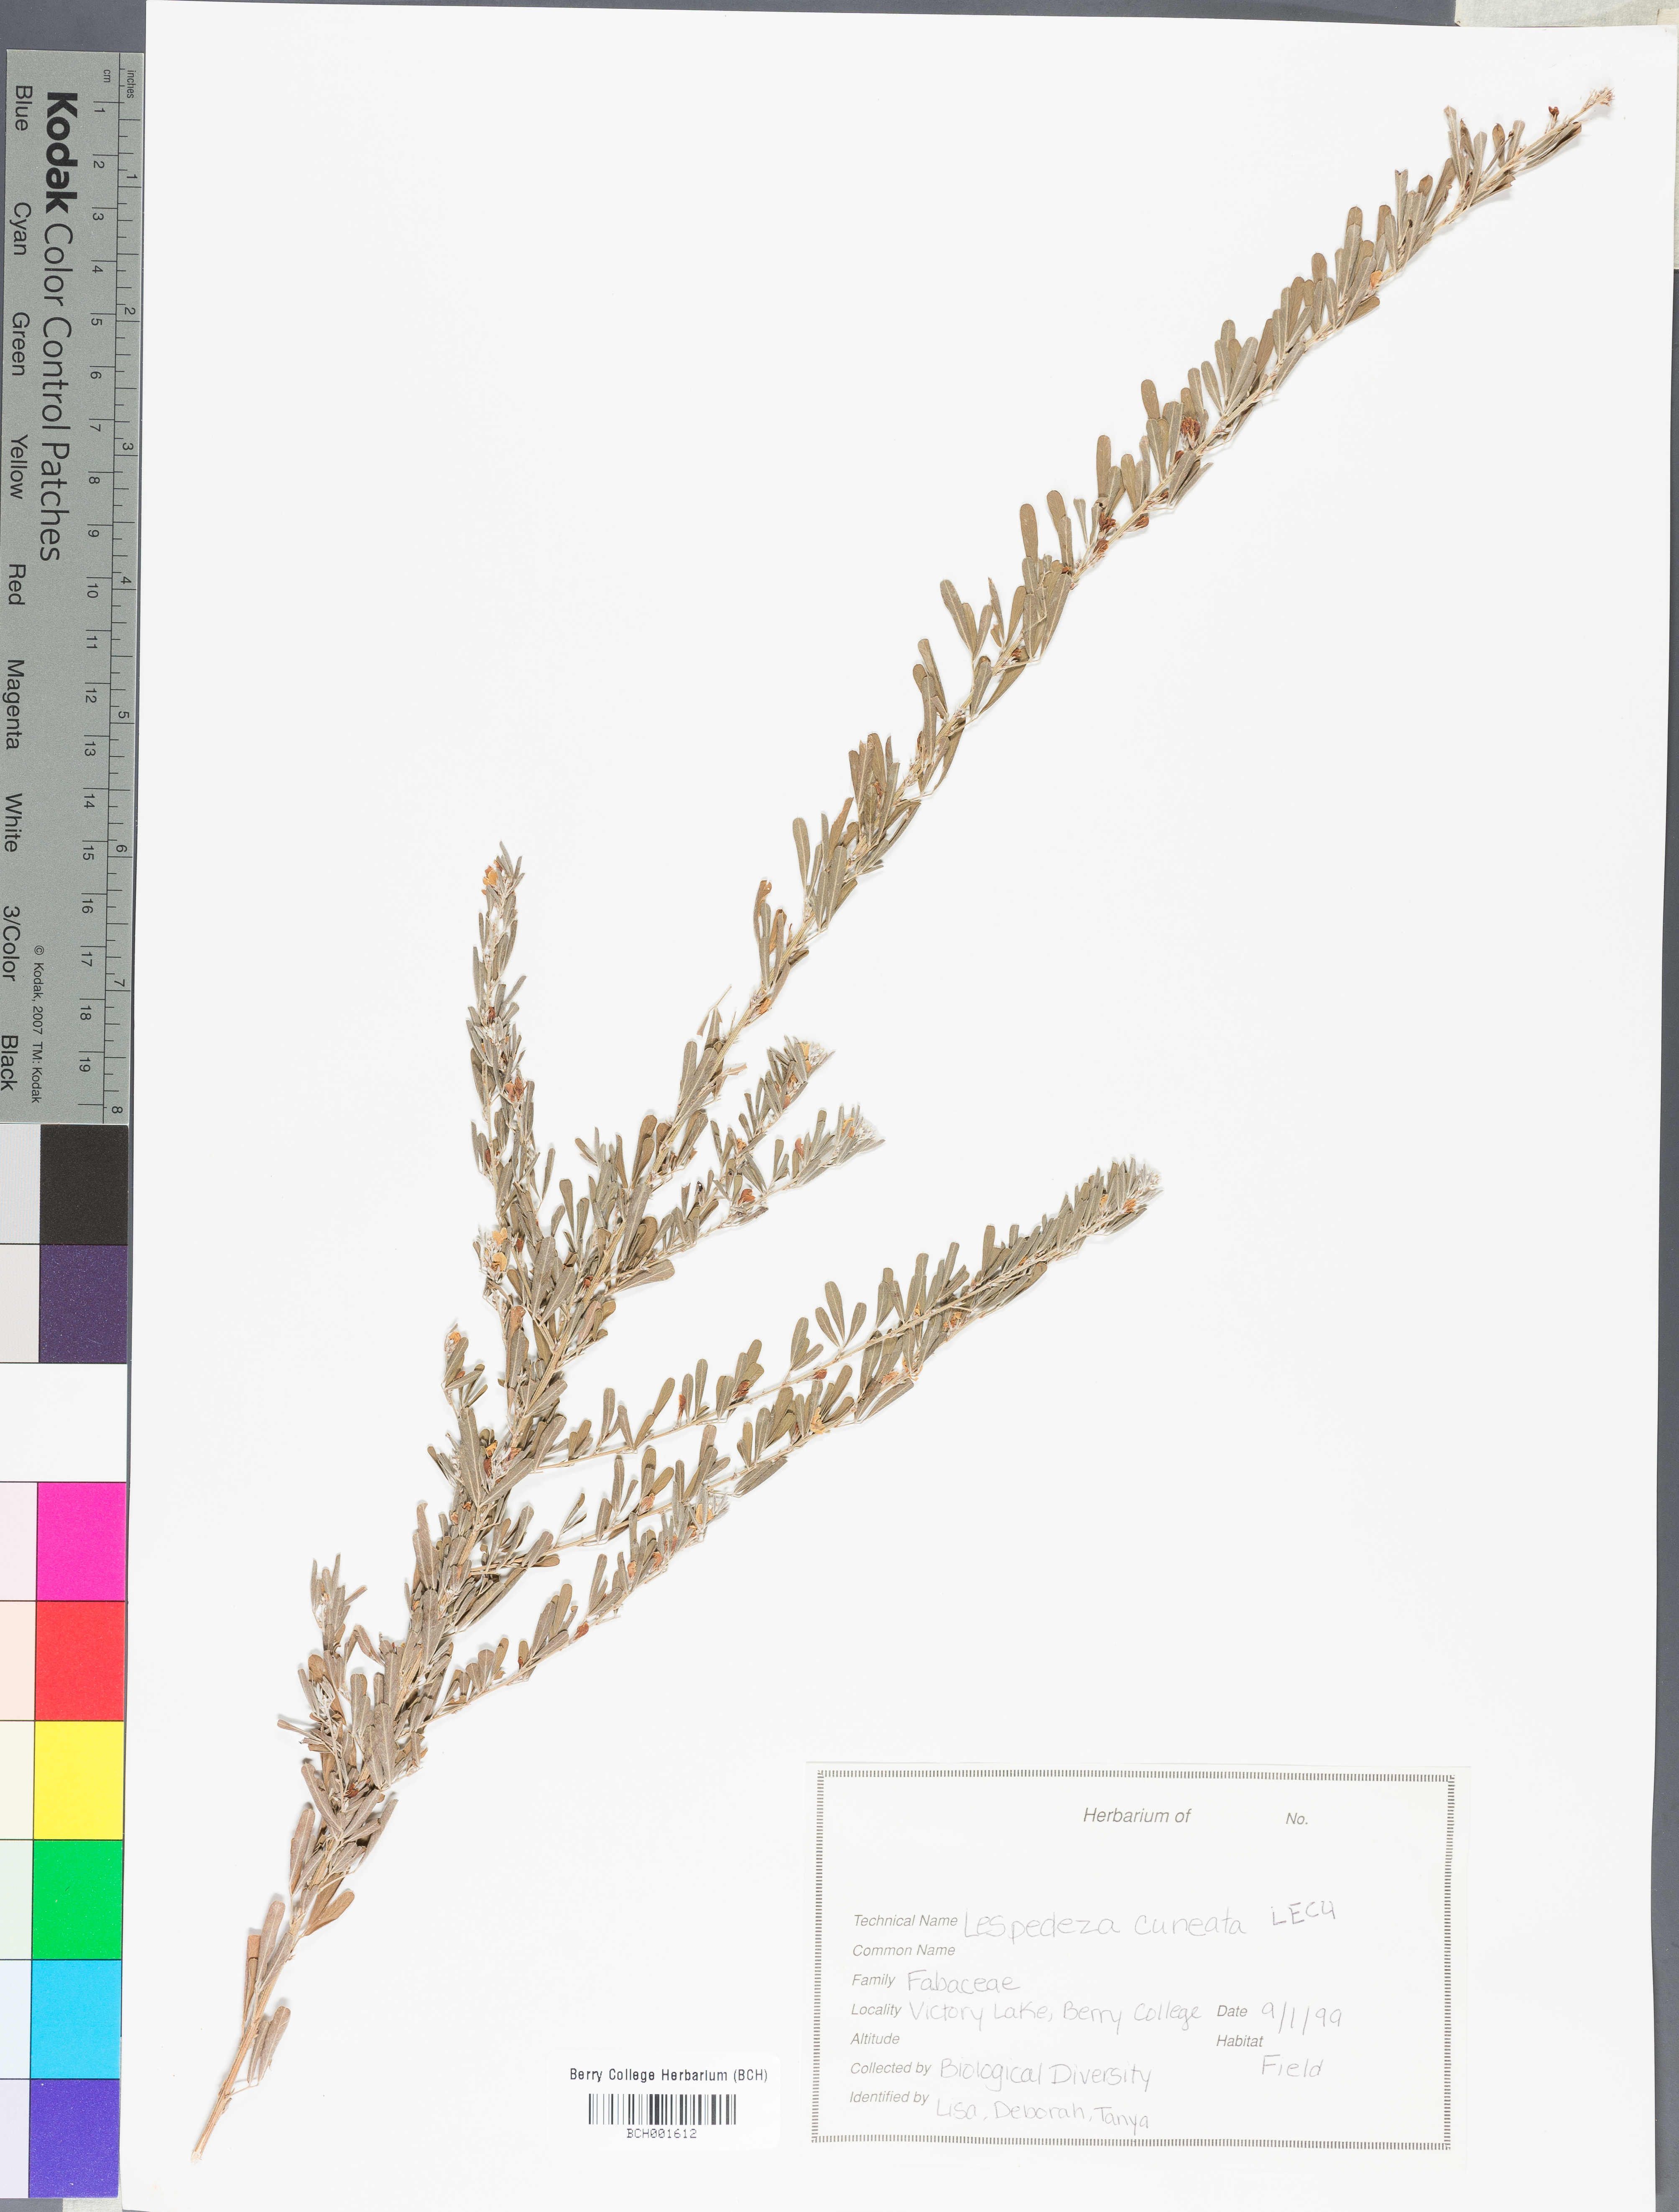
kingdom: Plantae
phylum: Tracheophyta
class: Magnoliopsida
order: Fabales
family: Fabaceae
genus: Lespedeza
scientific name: Lespedeza cuneata
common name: Chinese bush-clover
